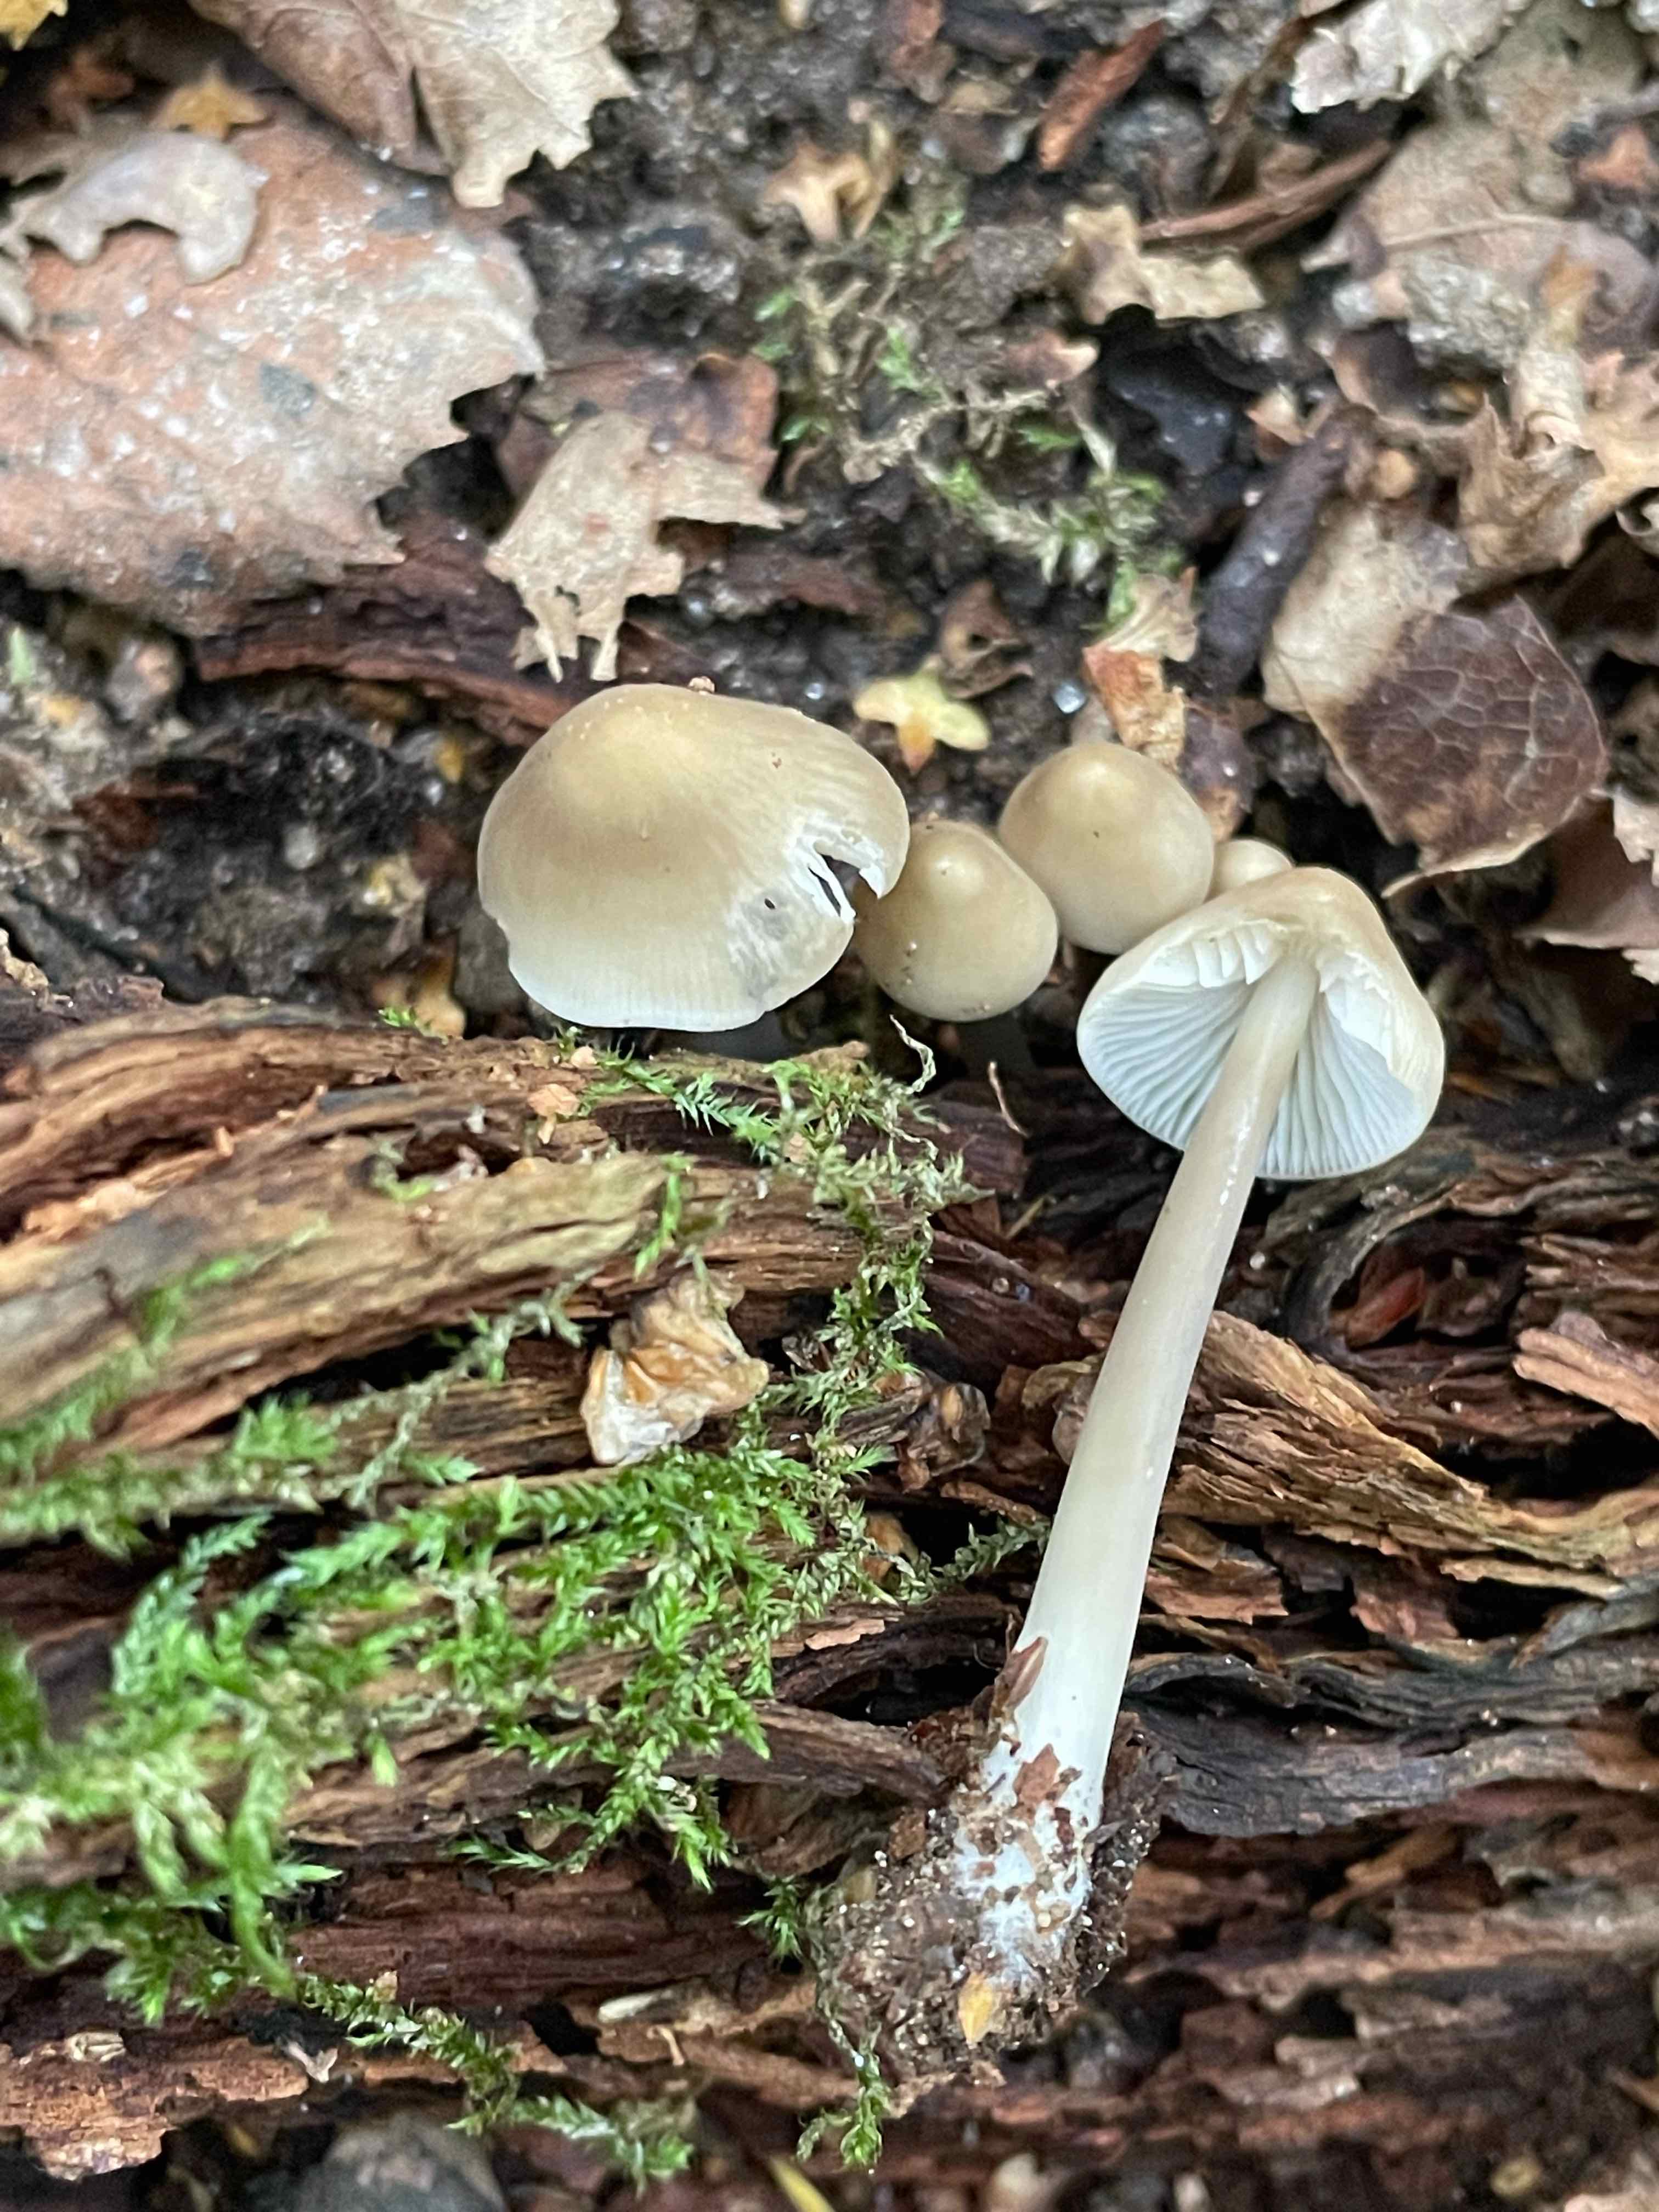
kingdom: Fungi
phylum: Basidiomycota
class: Agaricomycetes
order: Agaricales
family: Mycenaceae
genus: Mycena
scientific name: Mycena galericulata
